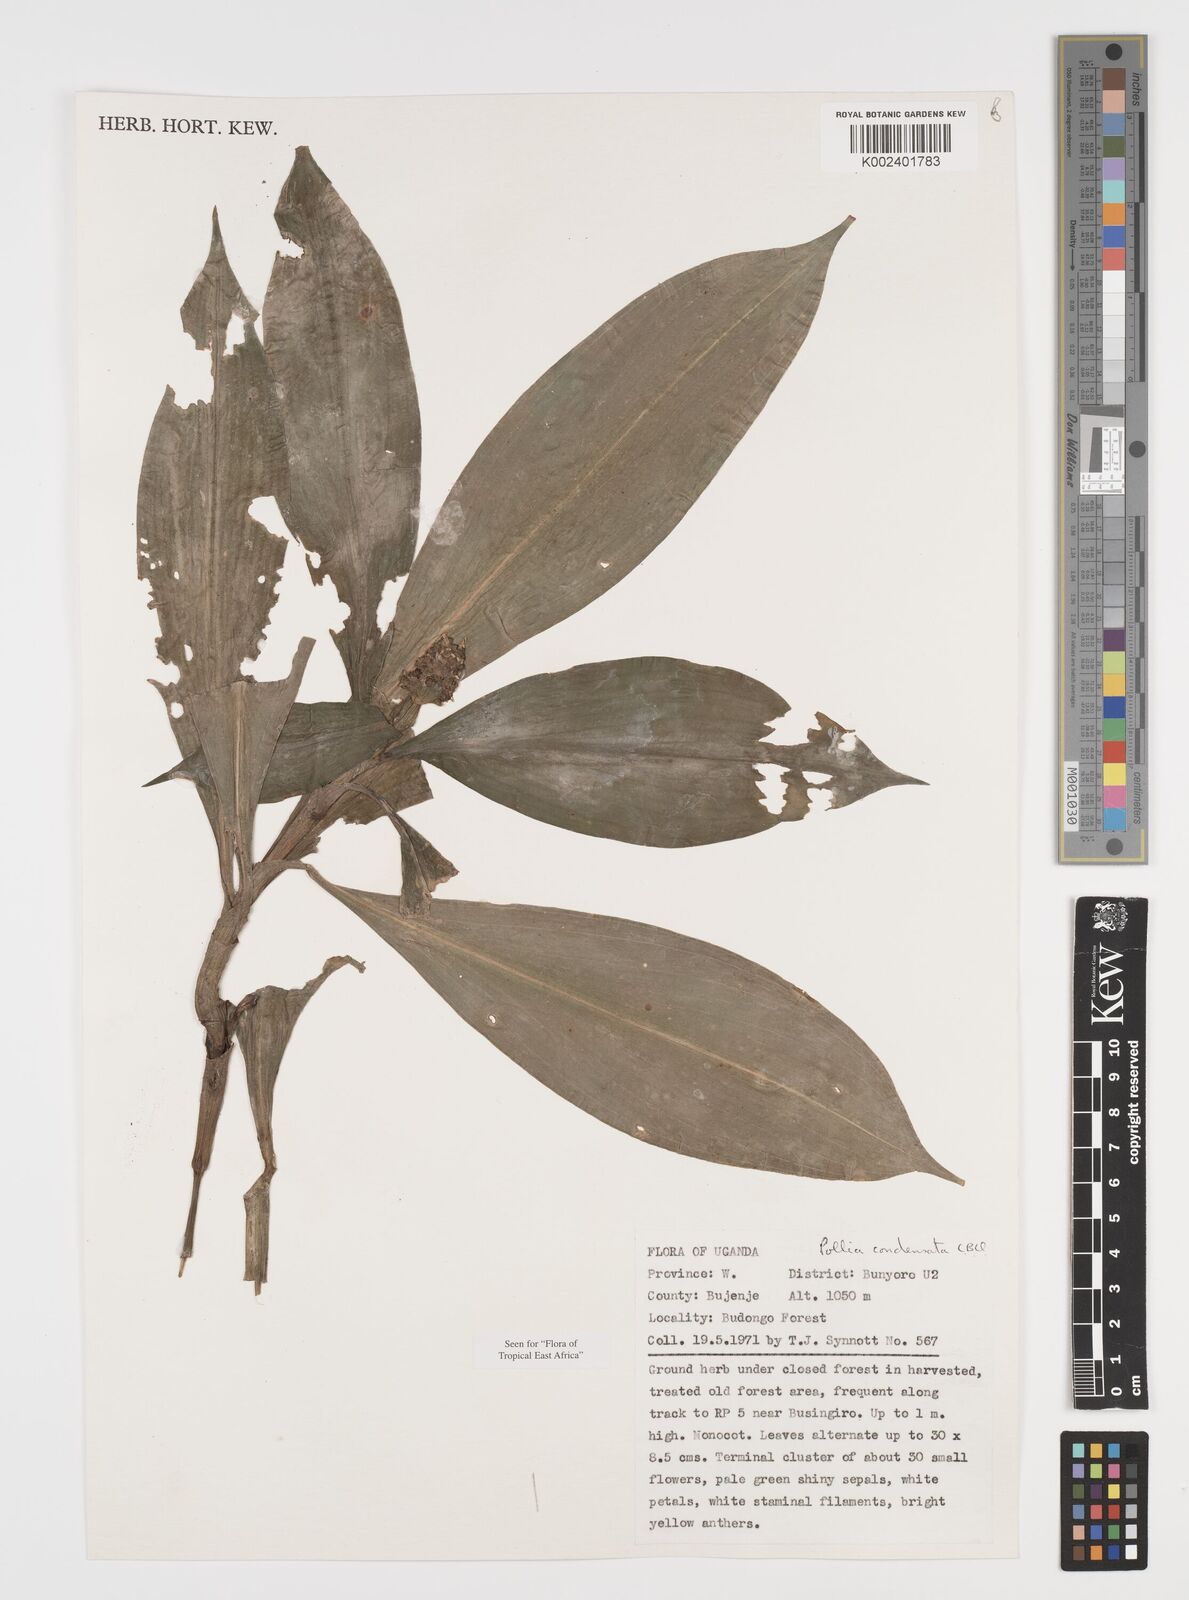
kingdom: Plantae
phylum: Tracheophyta
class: Liliopsida
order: Commelinales
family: Commelinaceae
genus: Pollia
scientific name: Pollia condensata
